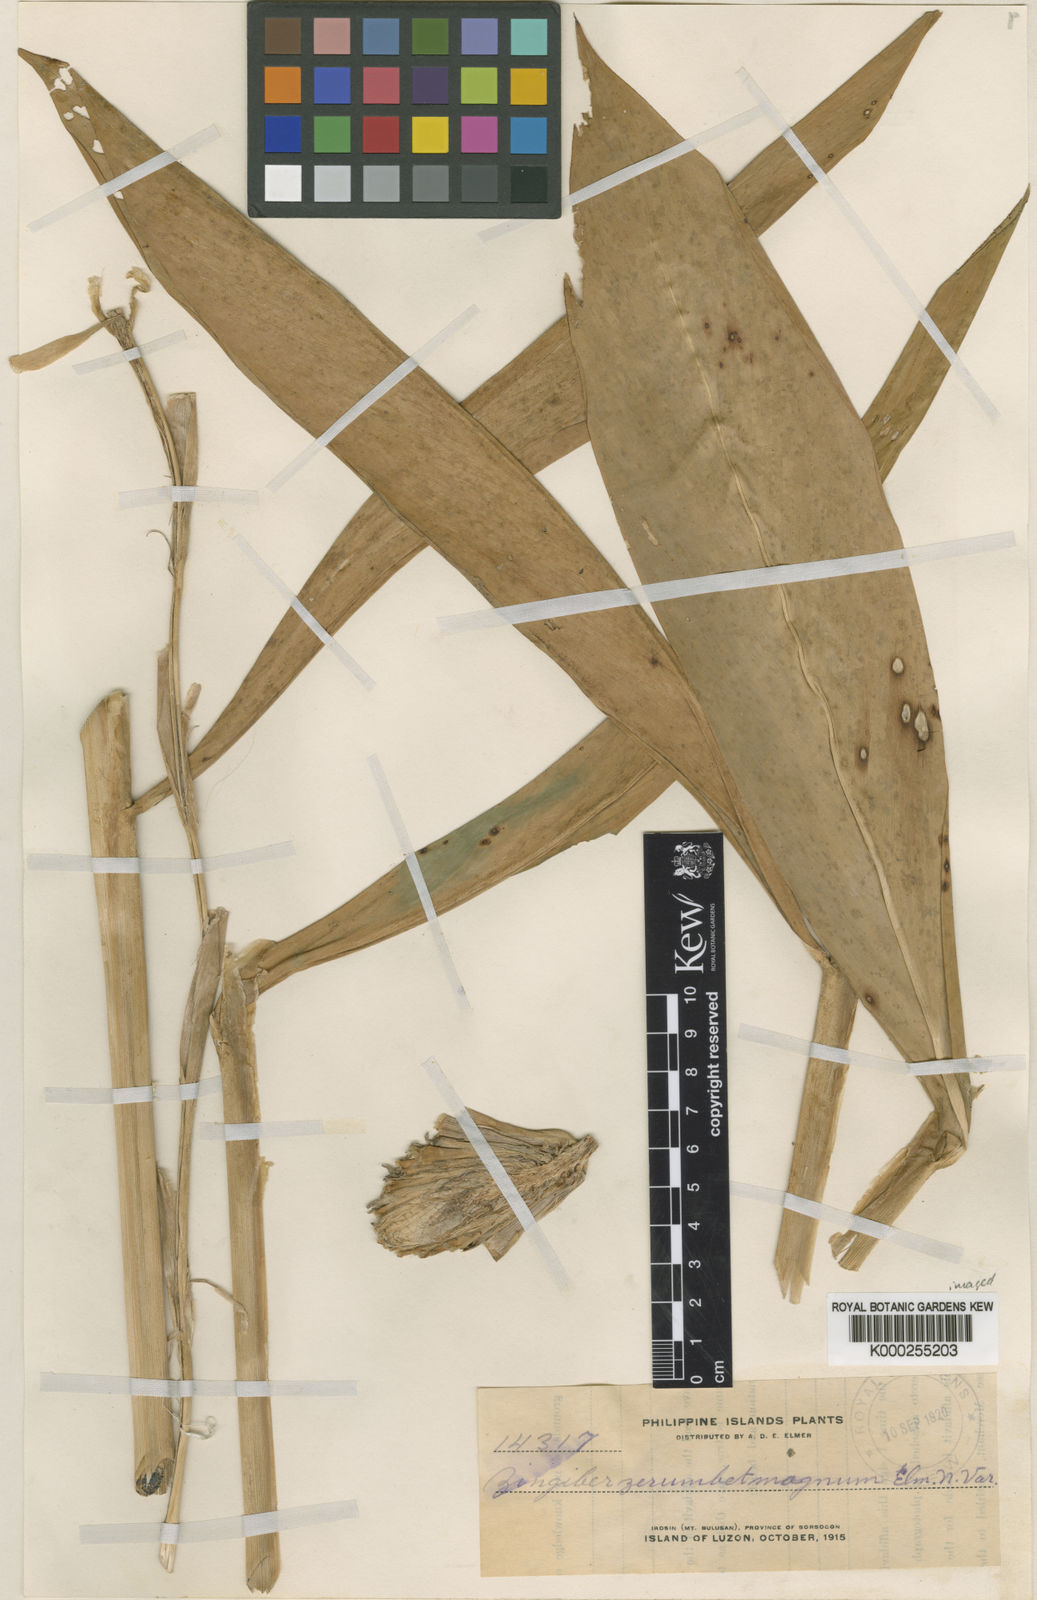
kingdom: Plantae
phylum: Tracheophyta
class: Liliopsida
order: Zingiberales
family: Zingiberaceae
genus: Zingiber
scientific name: Zingiber
